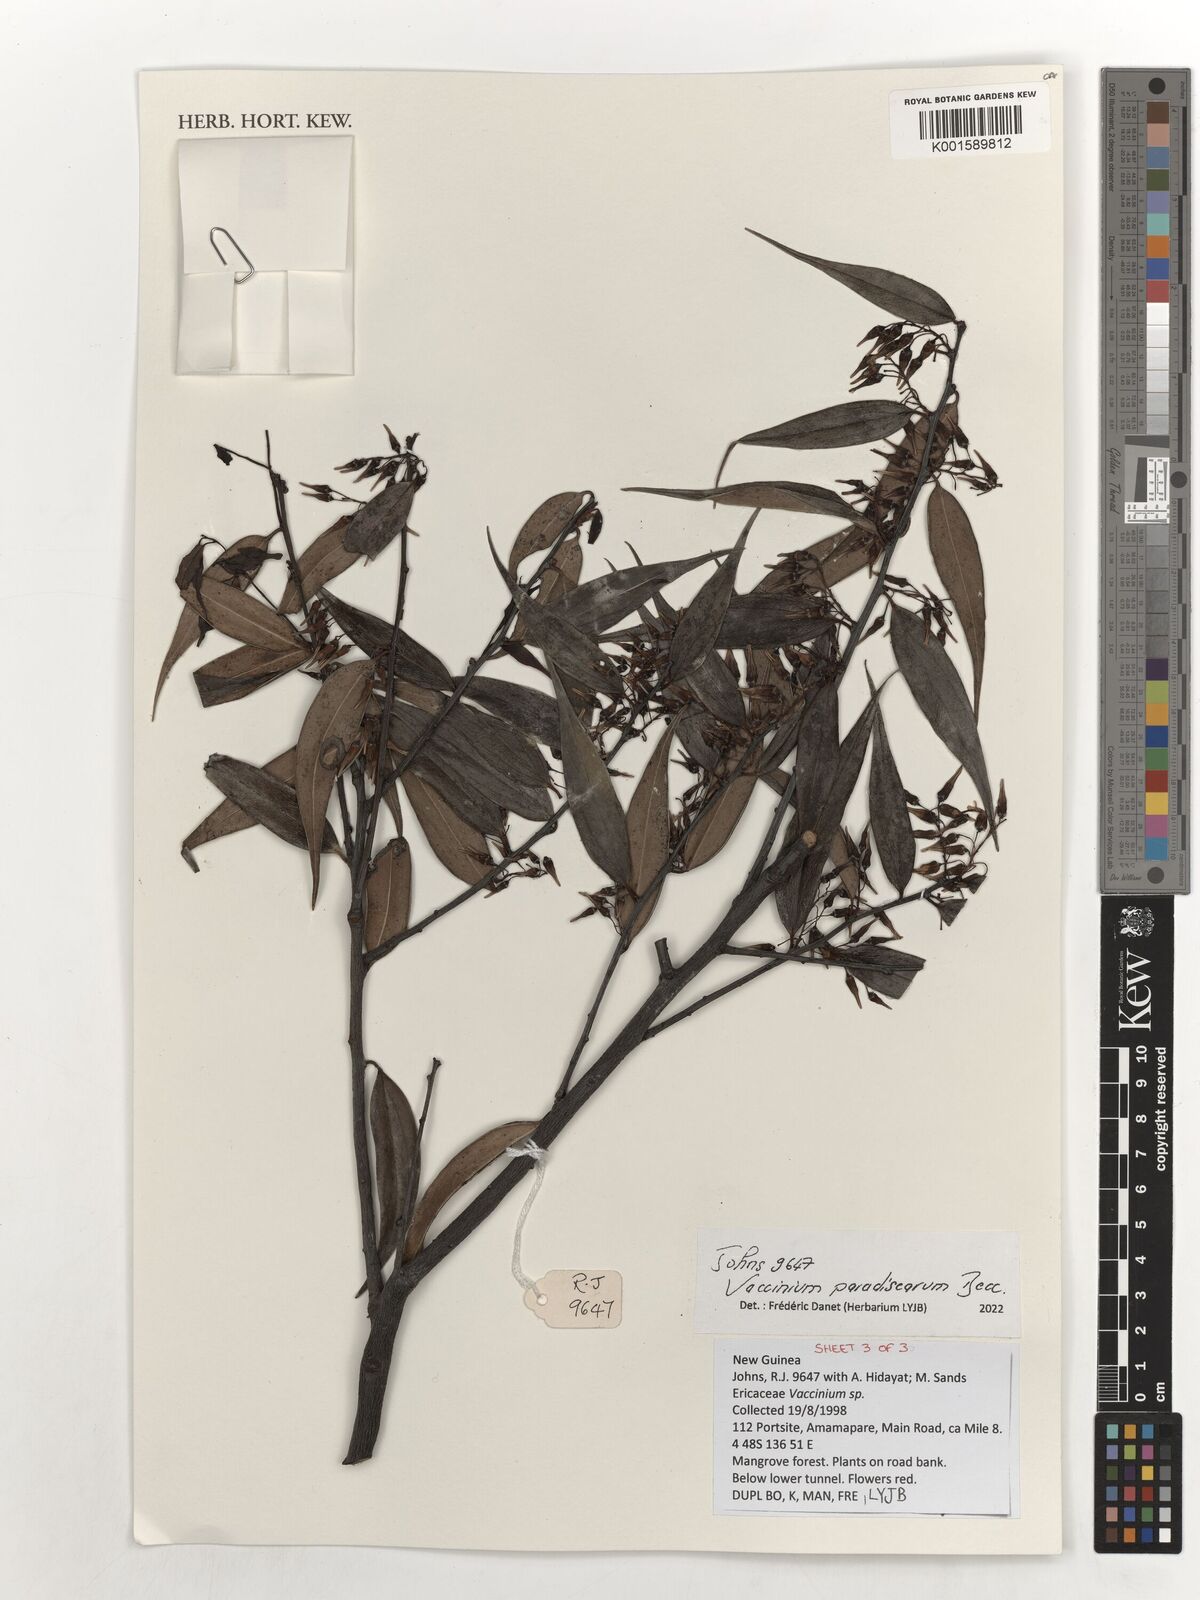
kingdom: Plantae
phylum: Tracheophyta
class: Magnoliopsida
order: Ericales
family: Ericaceae
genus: Vaccinium
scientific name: Vaccinium paradisearum
